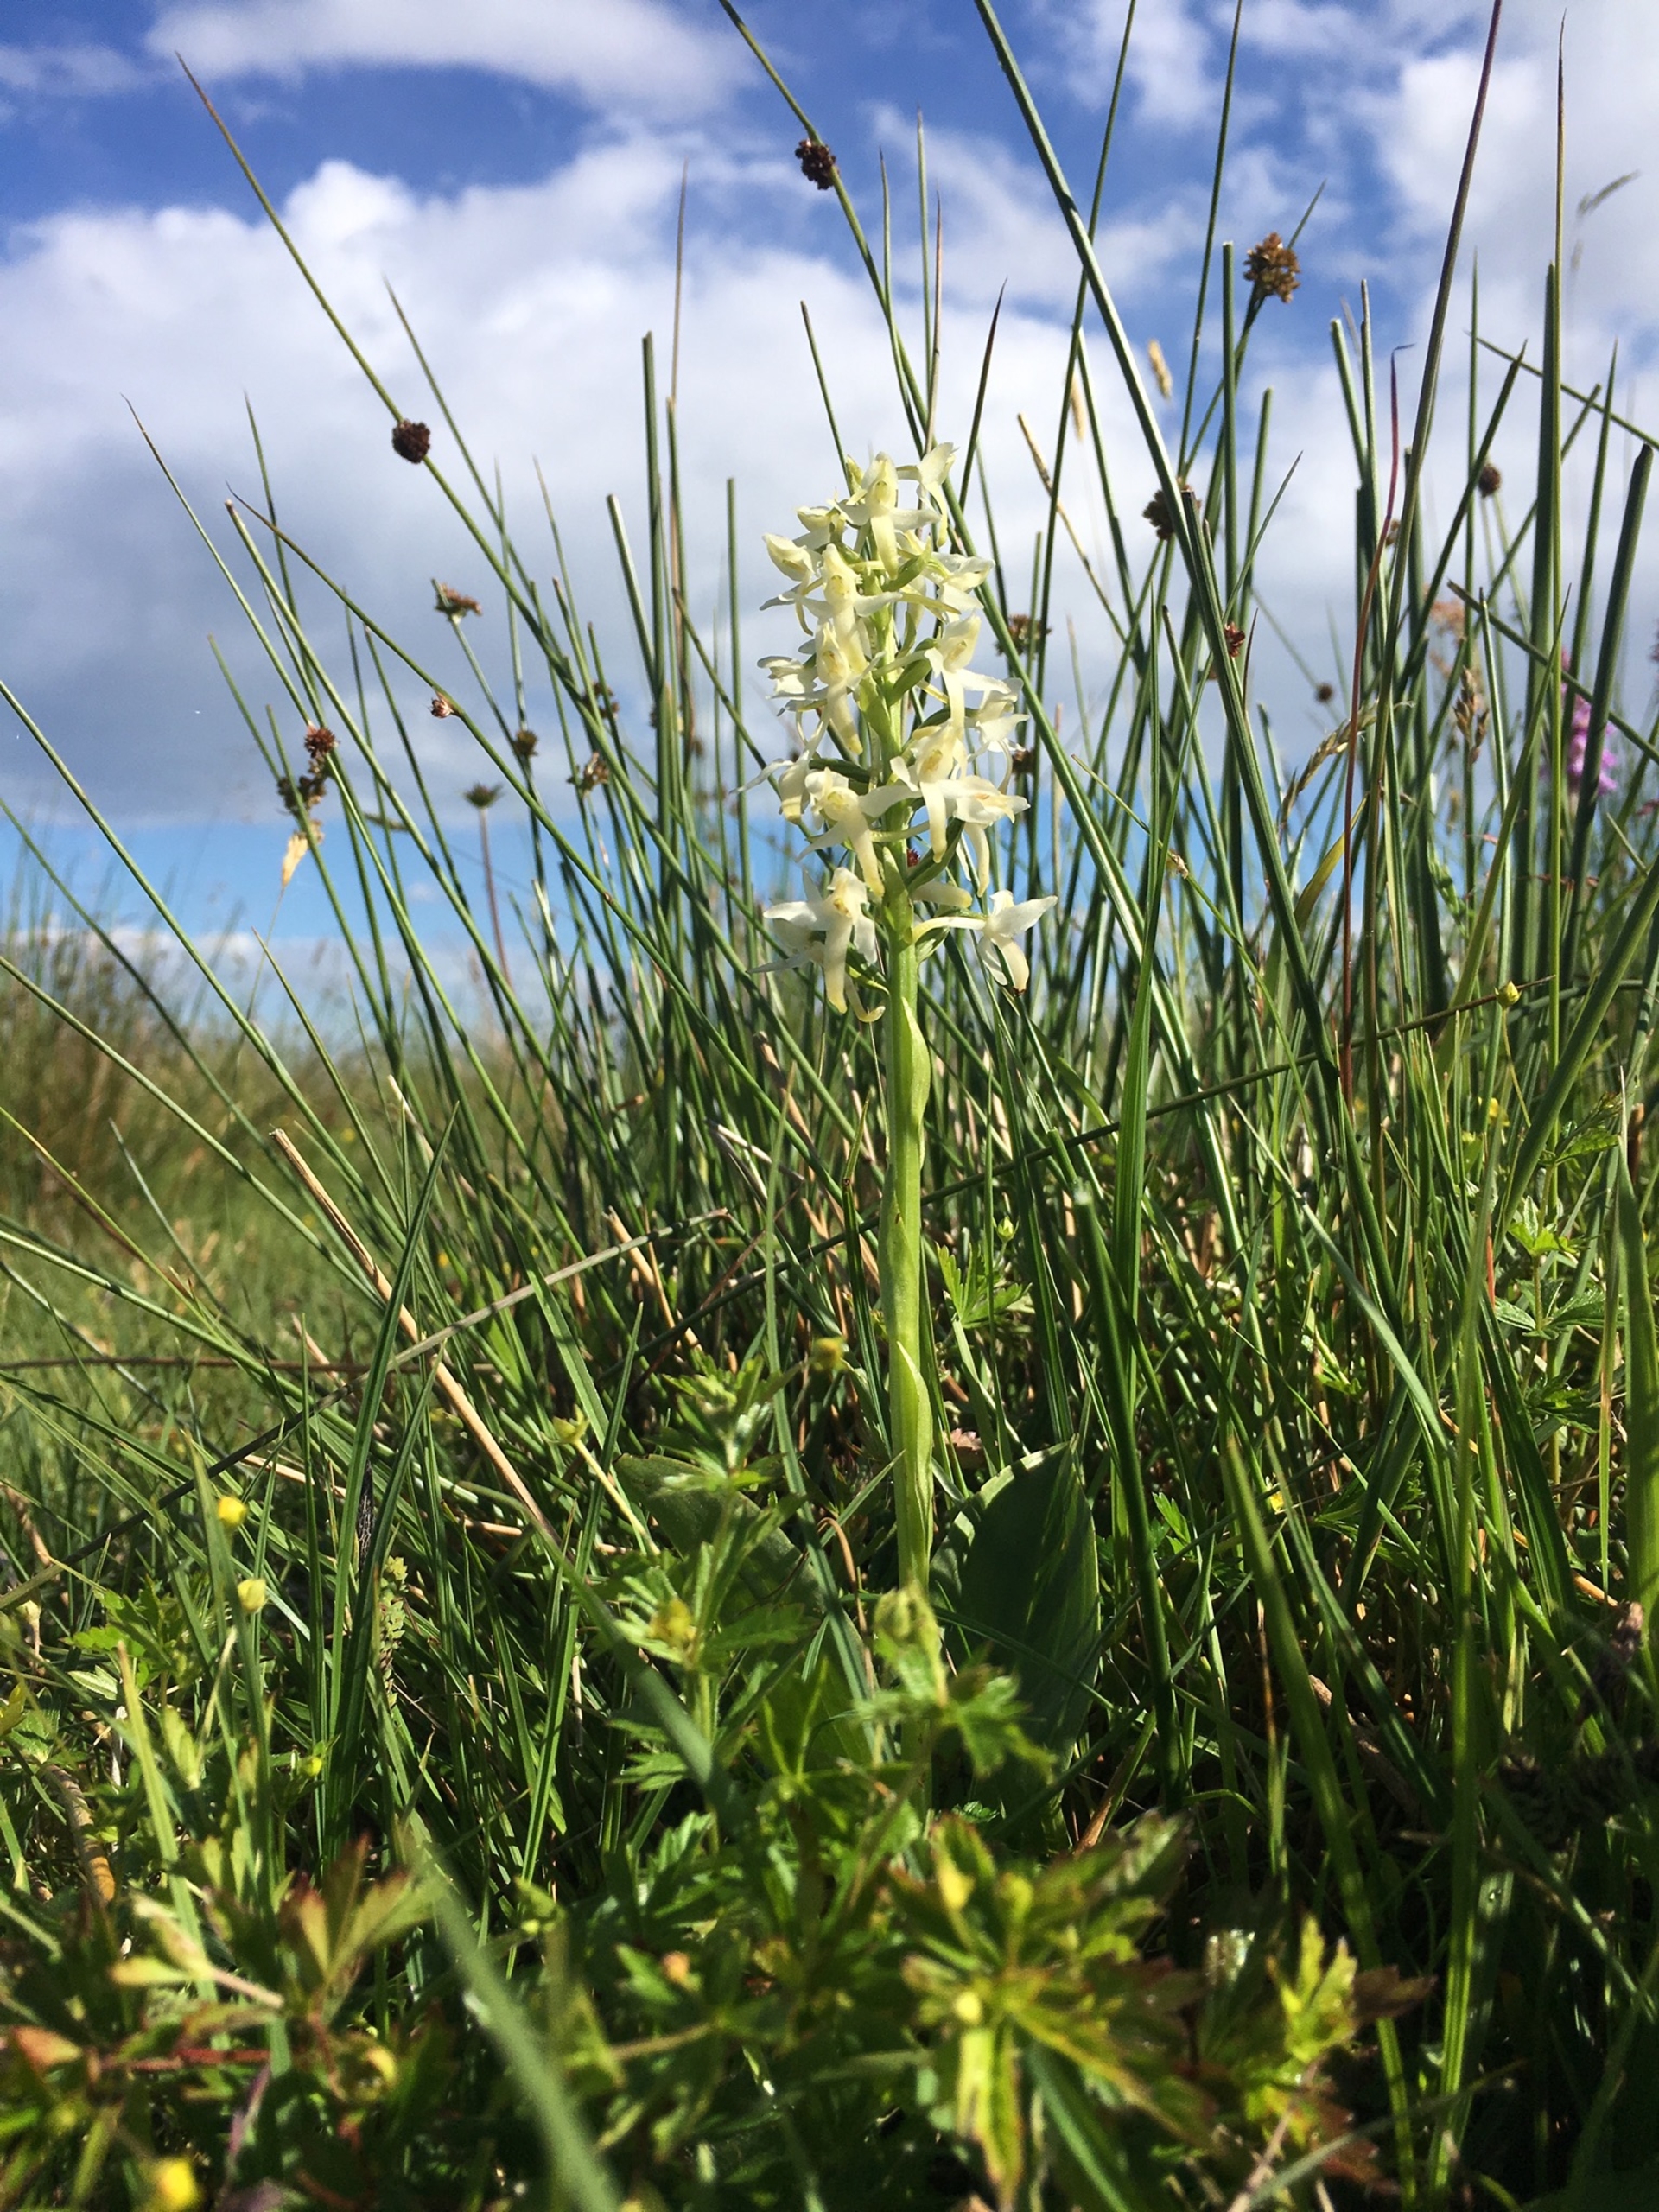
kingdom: Plantae
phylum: Tracheophyta
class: Liliopsida
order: Asparagales
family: Orchidaceae
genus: Platanthera
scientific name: Platanthera bifolia
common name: Bakke-gøgelilje
